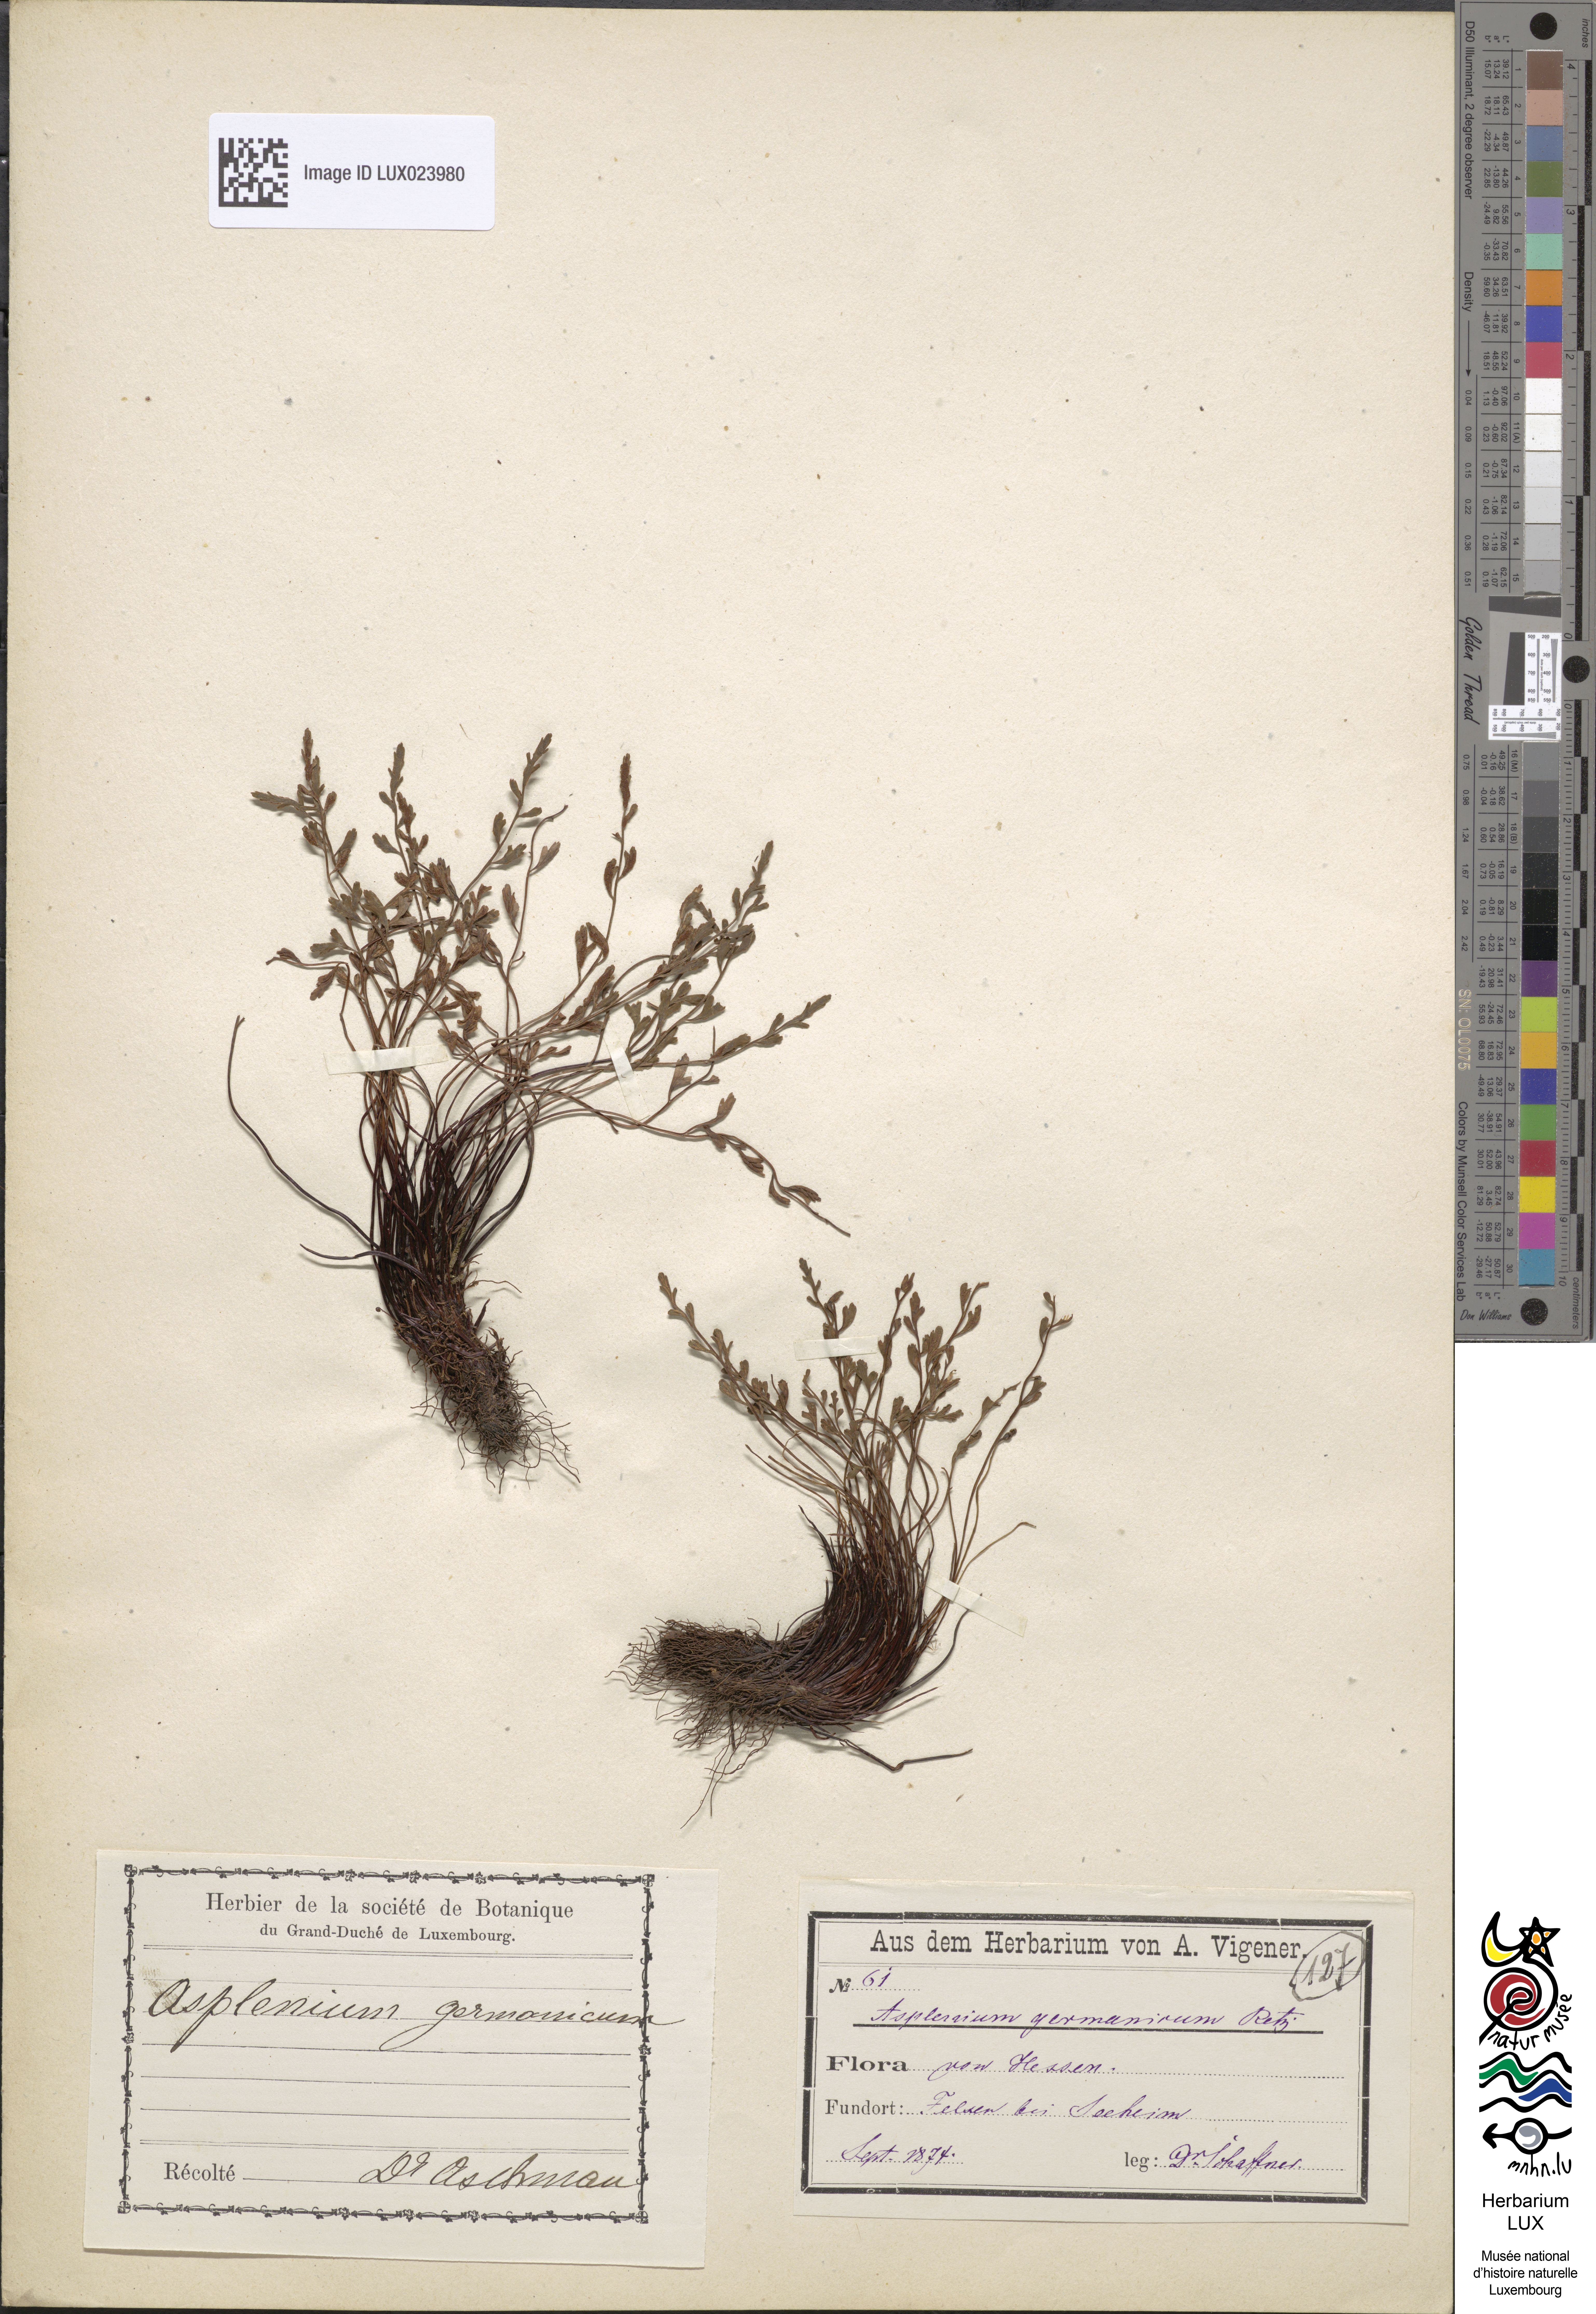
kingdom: Plantae
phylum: Tracheophyta
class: Polypodiopsida
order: Polypodiales
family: Aspleniaceae
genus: Asplenium
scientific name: Asplenium
